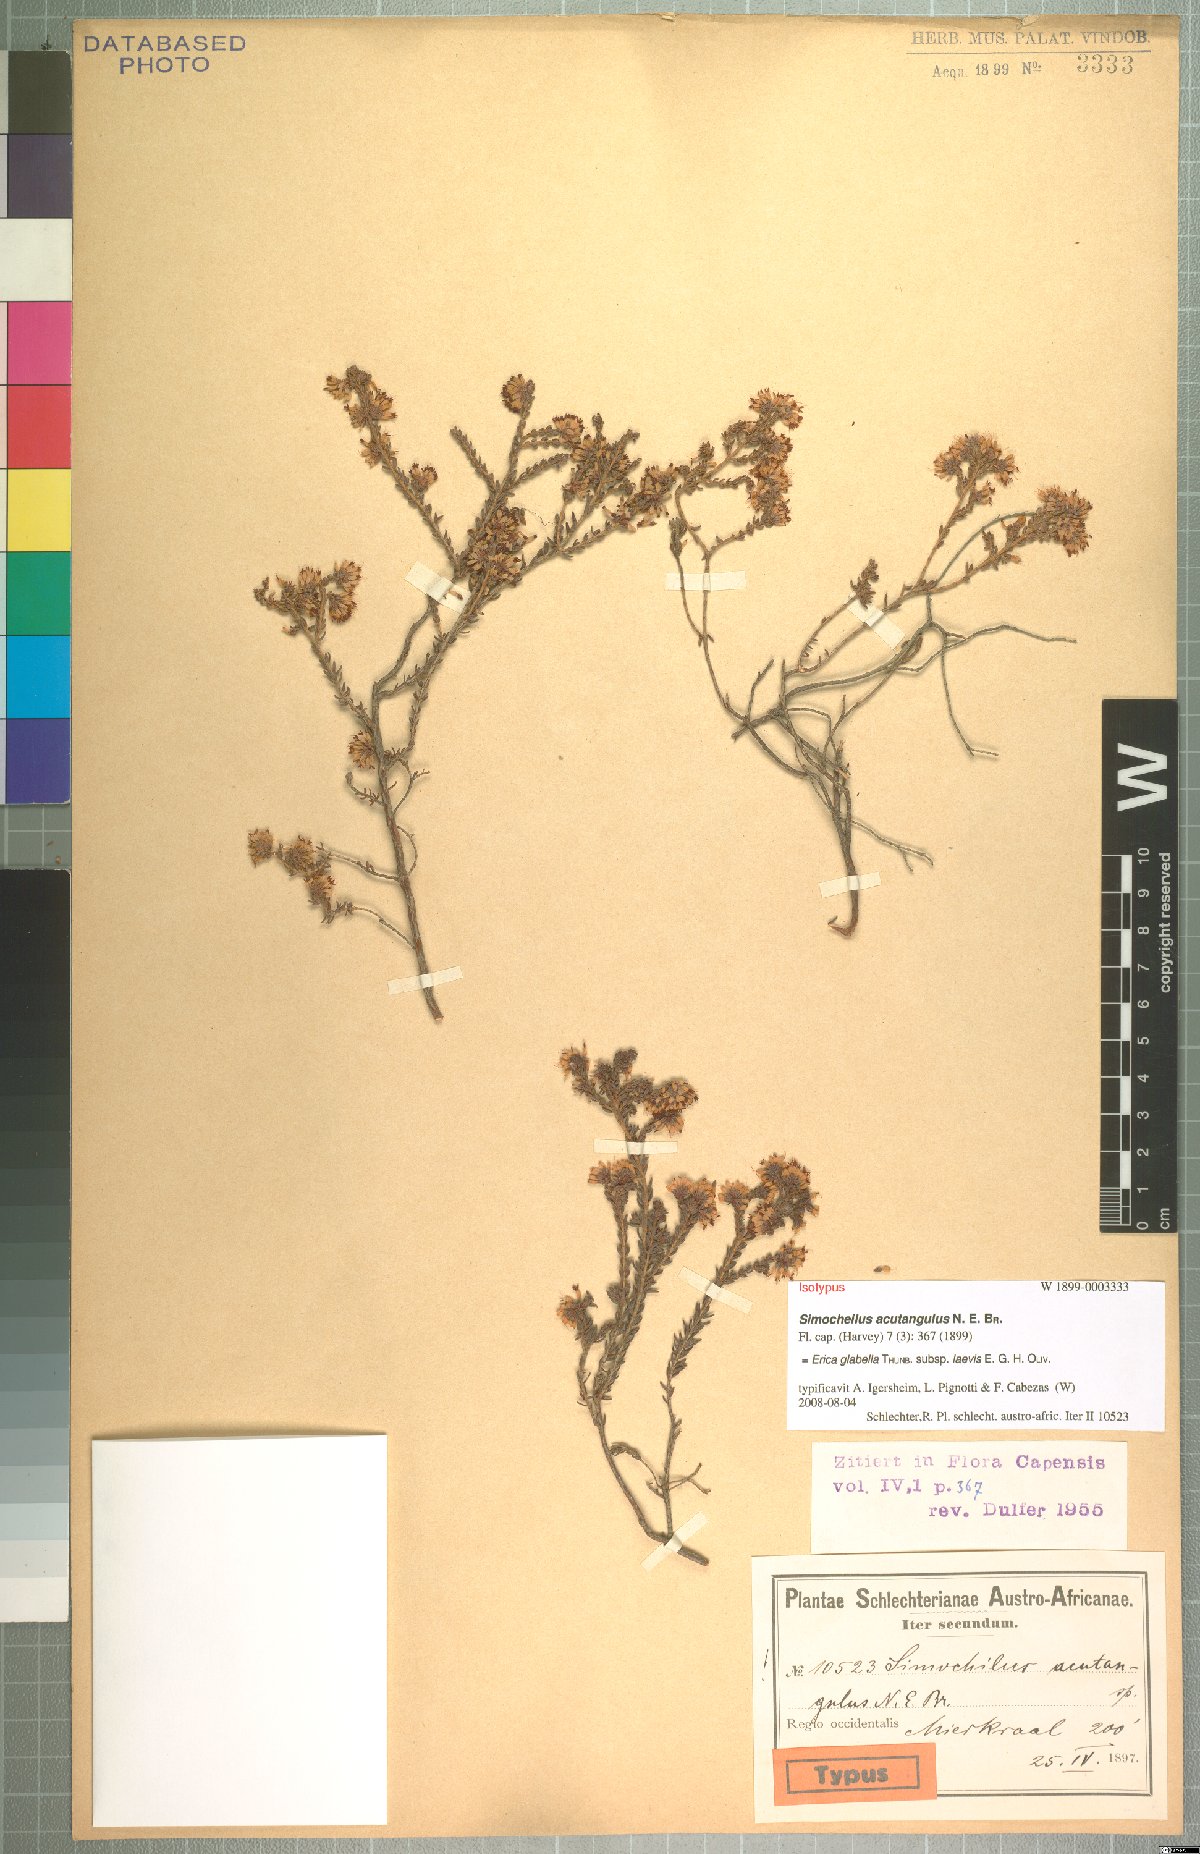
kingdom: Plantae
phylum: Tracheophyta
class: Magnoliopsida
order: Ericales
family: Ericaceae
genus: Erica
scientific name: Erica glabella
